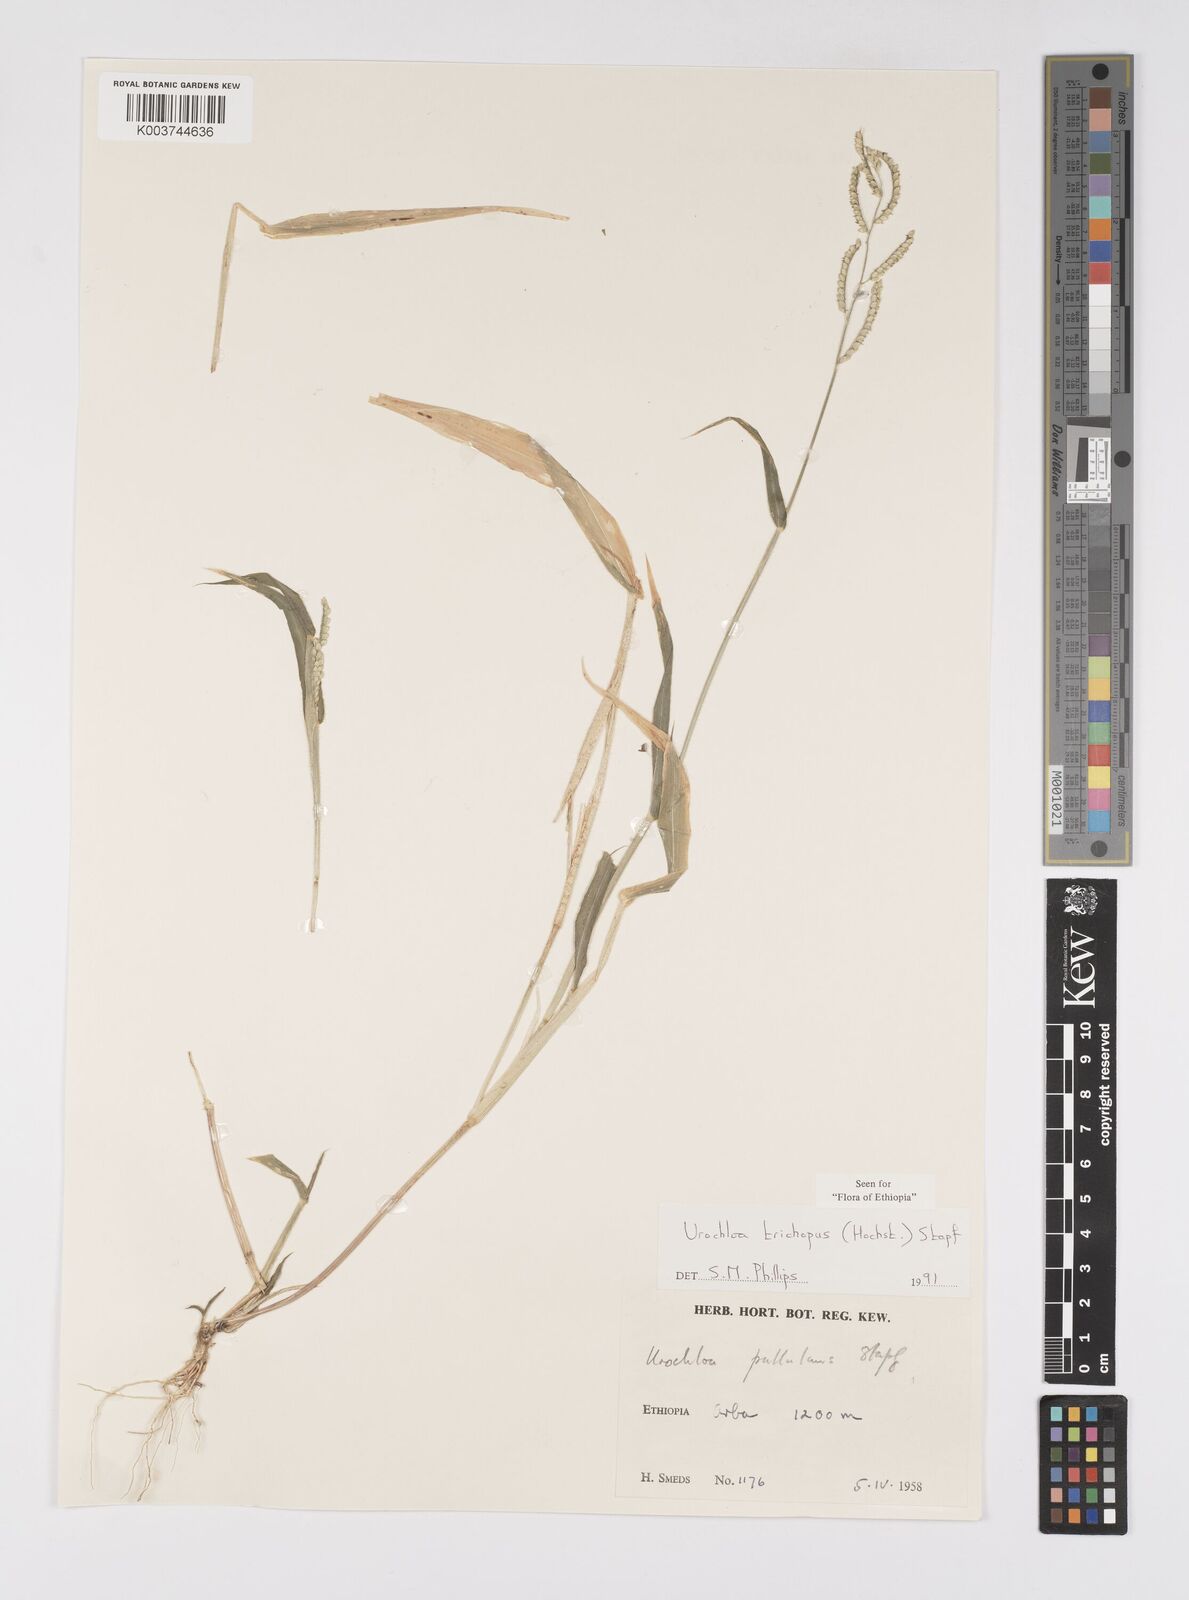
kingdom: Plantae
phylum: Tracheophyta
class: Liliopsida
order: Poales
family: Poaceae
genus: Urochloa
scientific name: Urochloa trichopus
